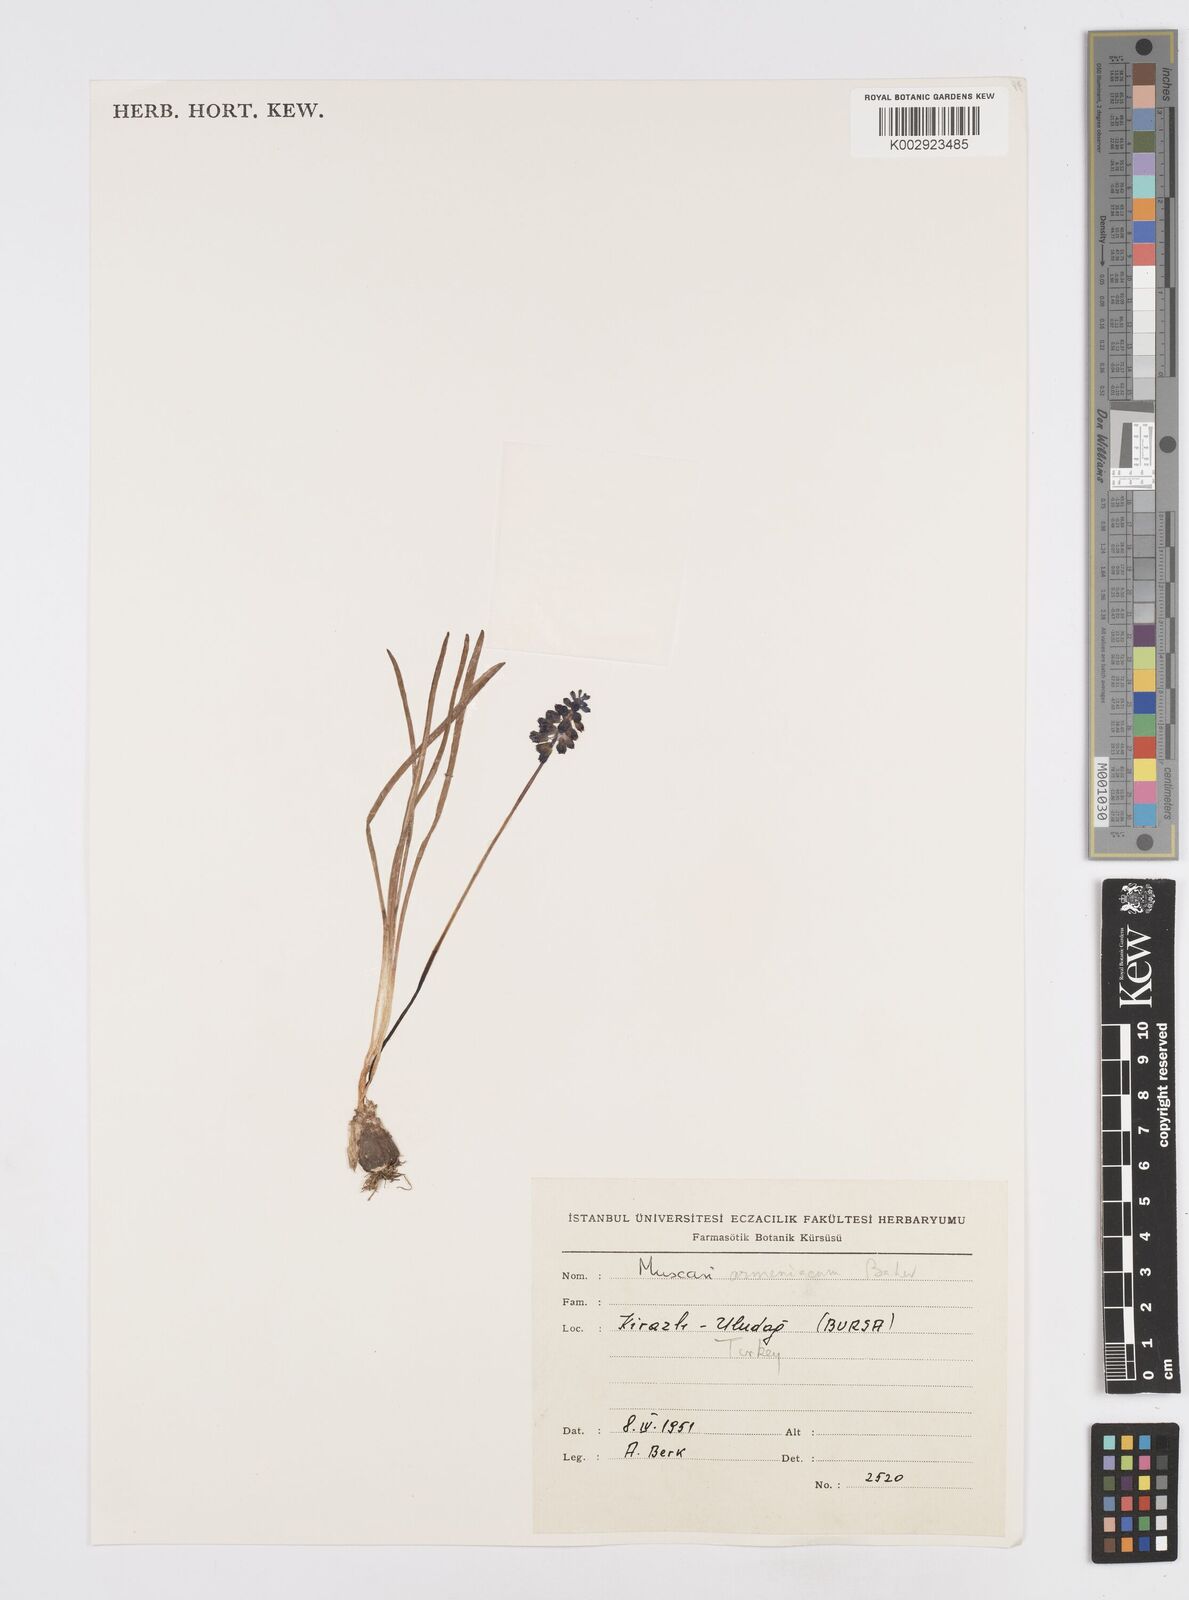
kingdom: Plantae
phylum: Tracheophyta
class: Liliopsida
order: Asparagales
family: Asparagaceae
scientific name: Asparagaceae
